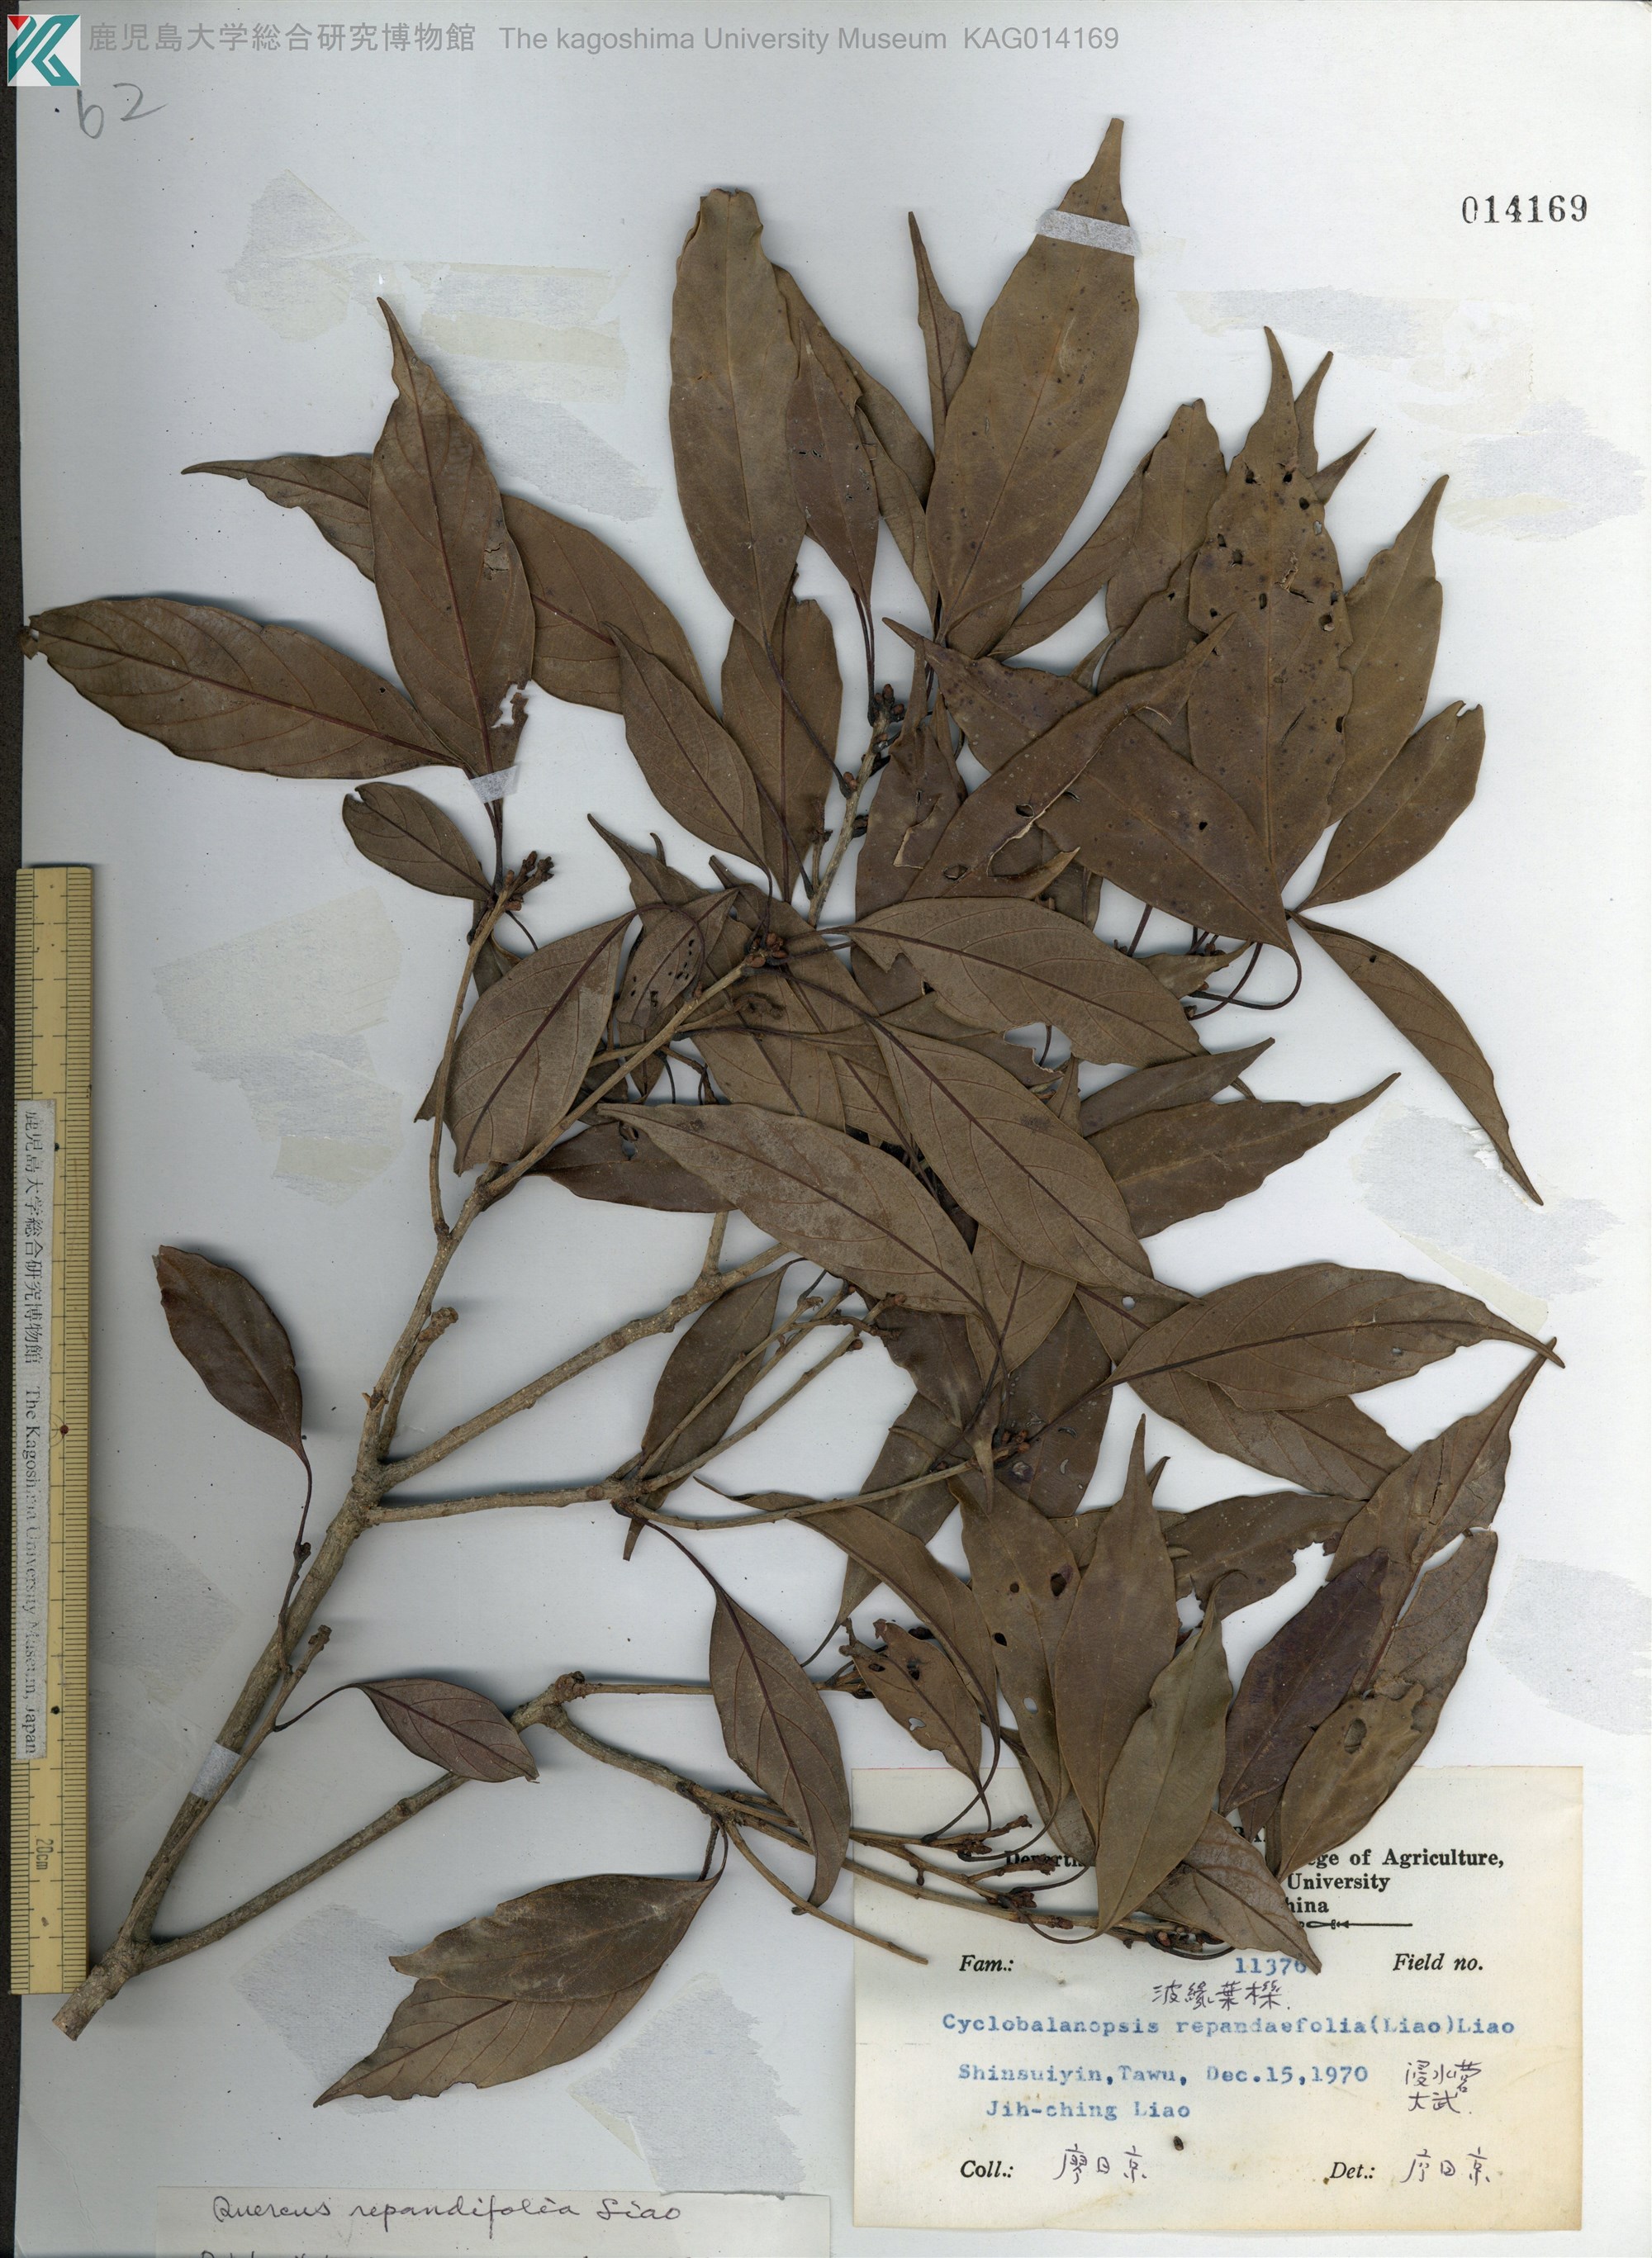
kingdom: Plantae
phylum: Tracheophyta
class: Magnoliopsida
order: Fagales
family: Fagaceae
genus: Quercus
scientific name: Quercus glauca
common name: Ring-cup oak
